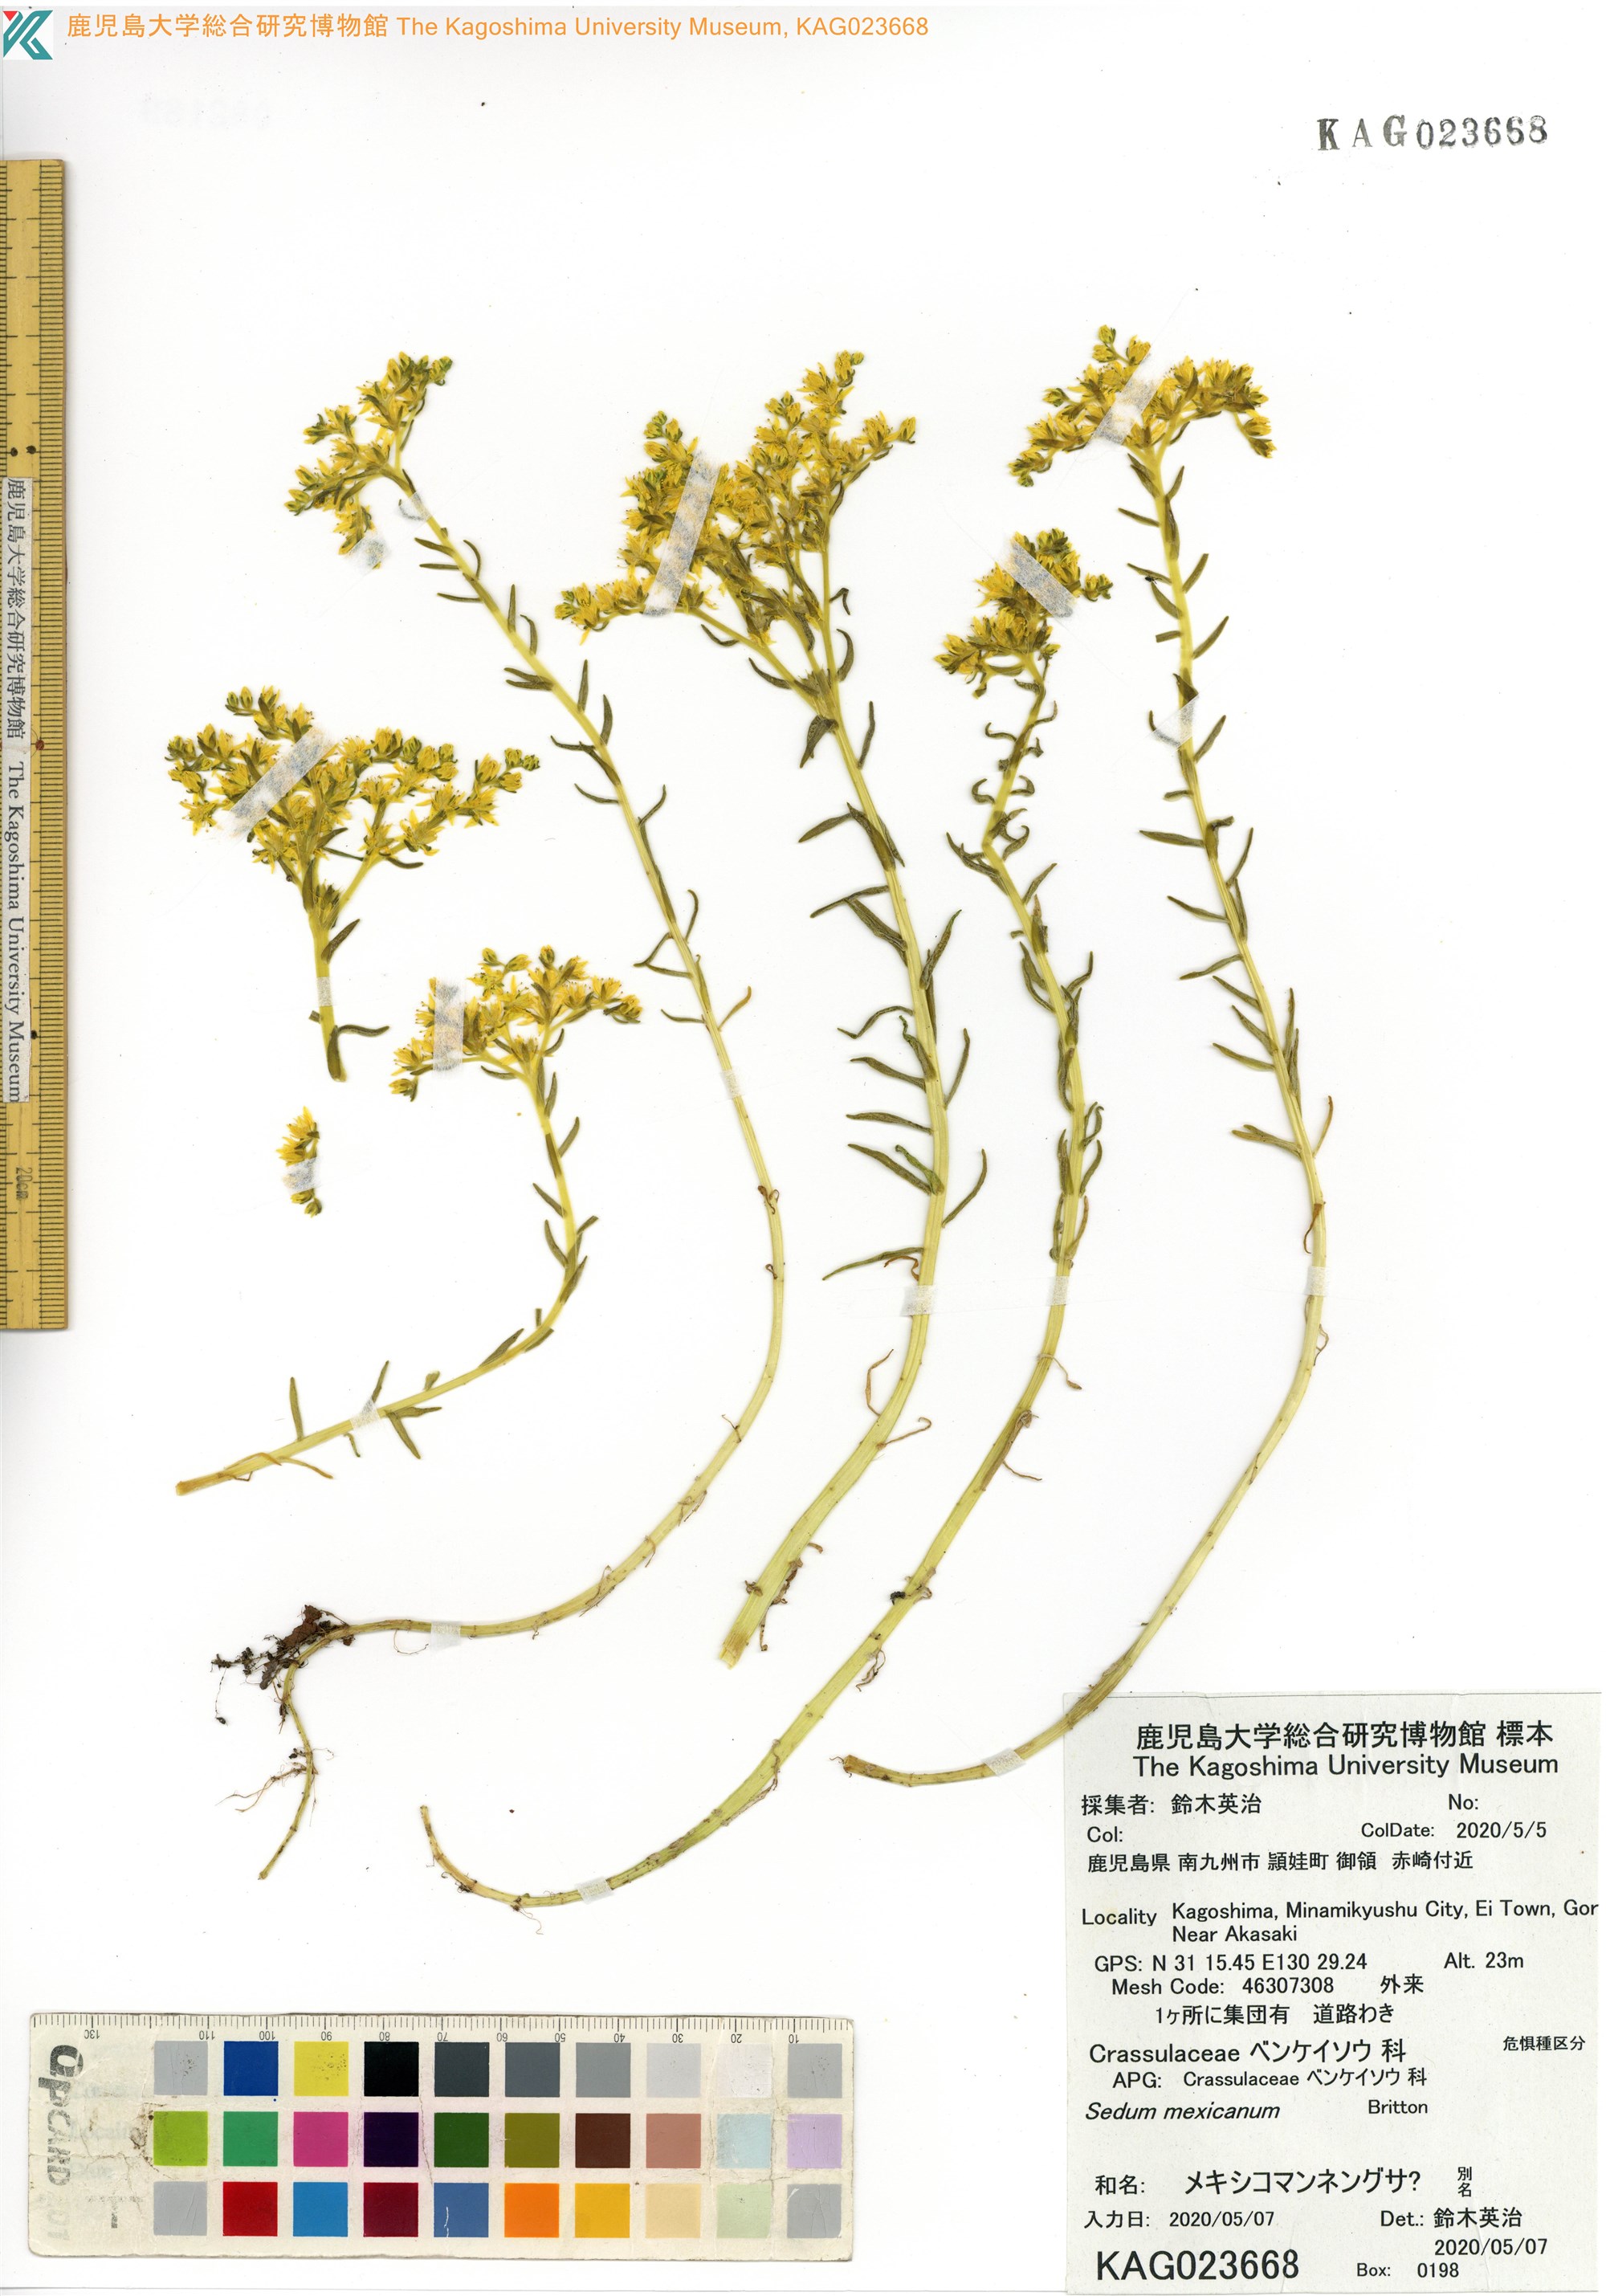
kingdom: Plantae
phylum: Tracheophyta
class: Magnoliopsida
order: Saxifragales
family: Crassulaceae
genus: Sedum
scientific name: Sedum mexicanum
